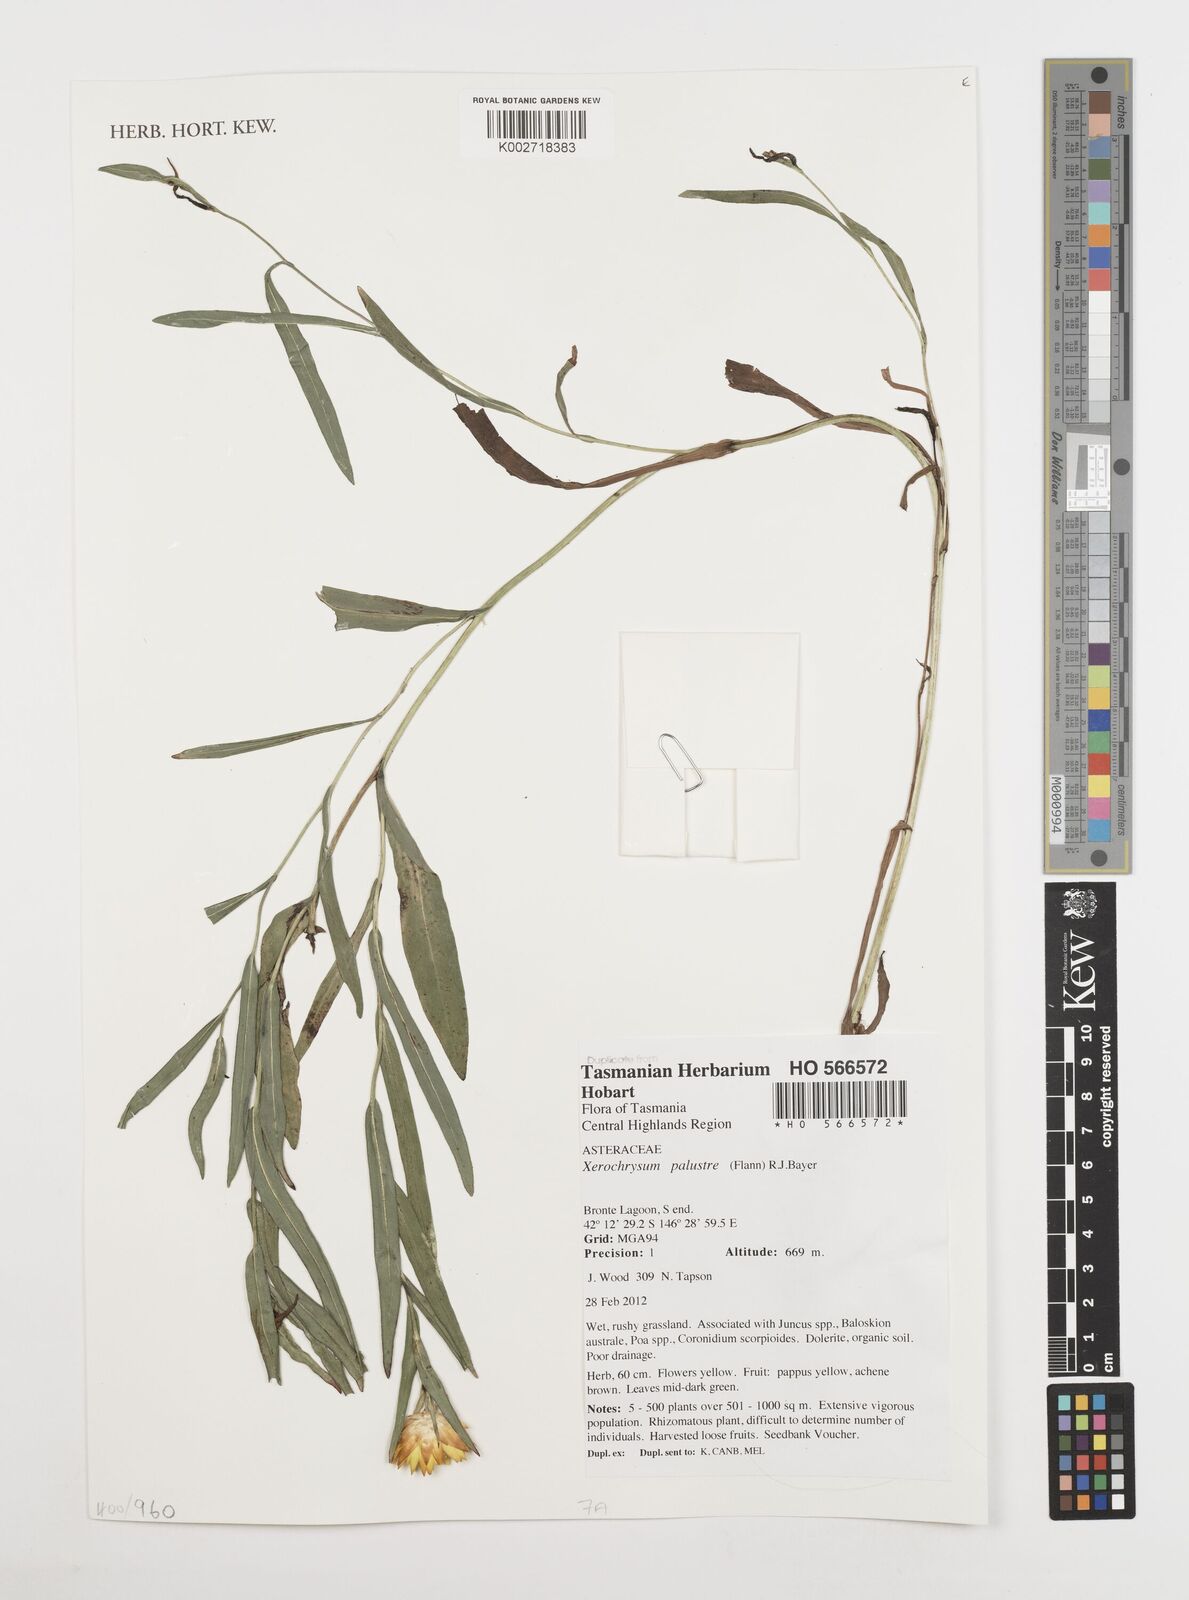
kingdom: Plantae
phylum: Tracheophyta
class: Magnoliopsida
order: Asterales
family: Asteraceae
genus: Xerochrysum
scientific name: Xerochrysum palustre
